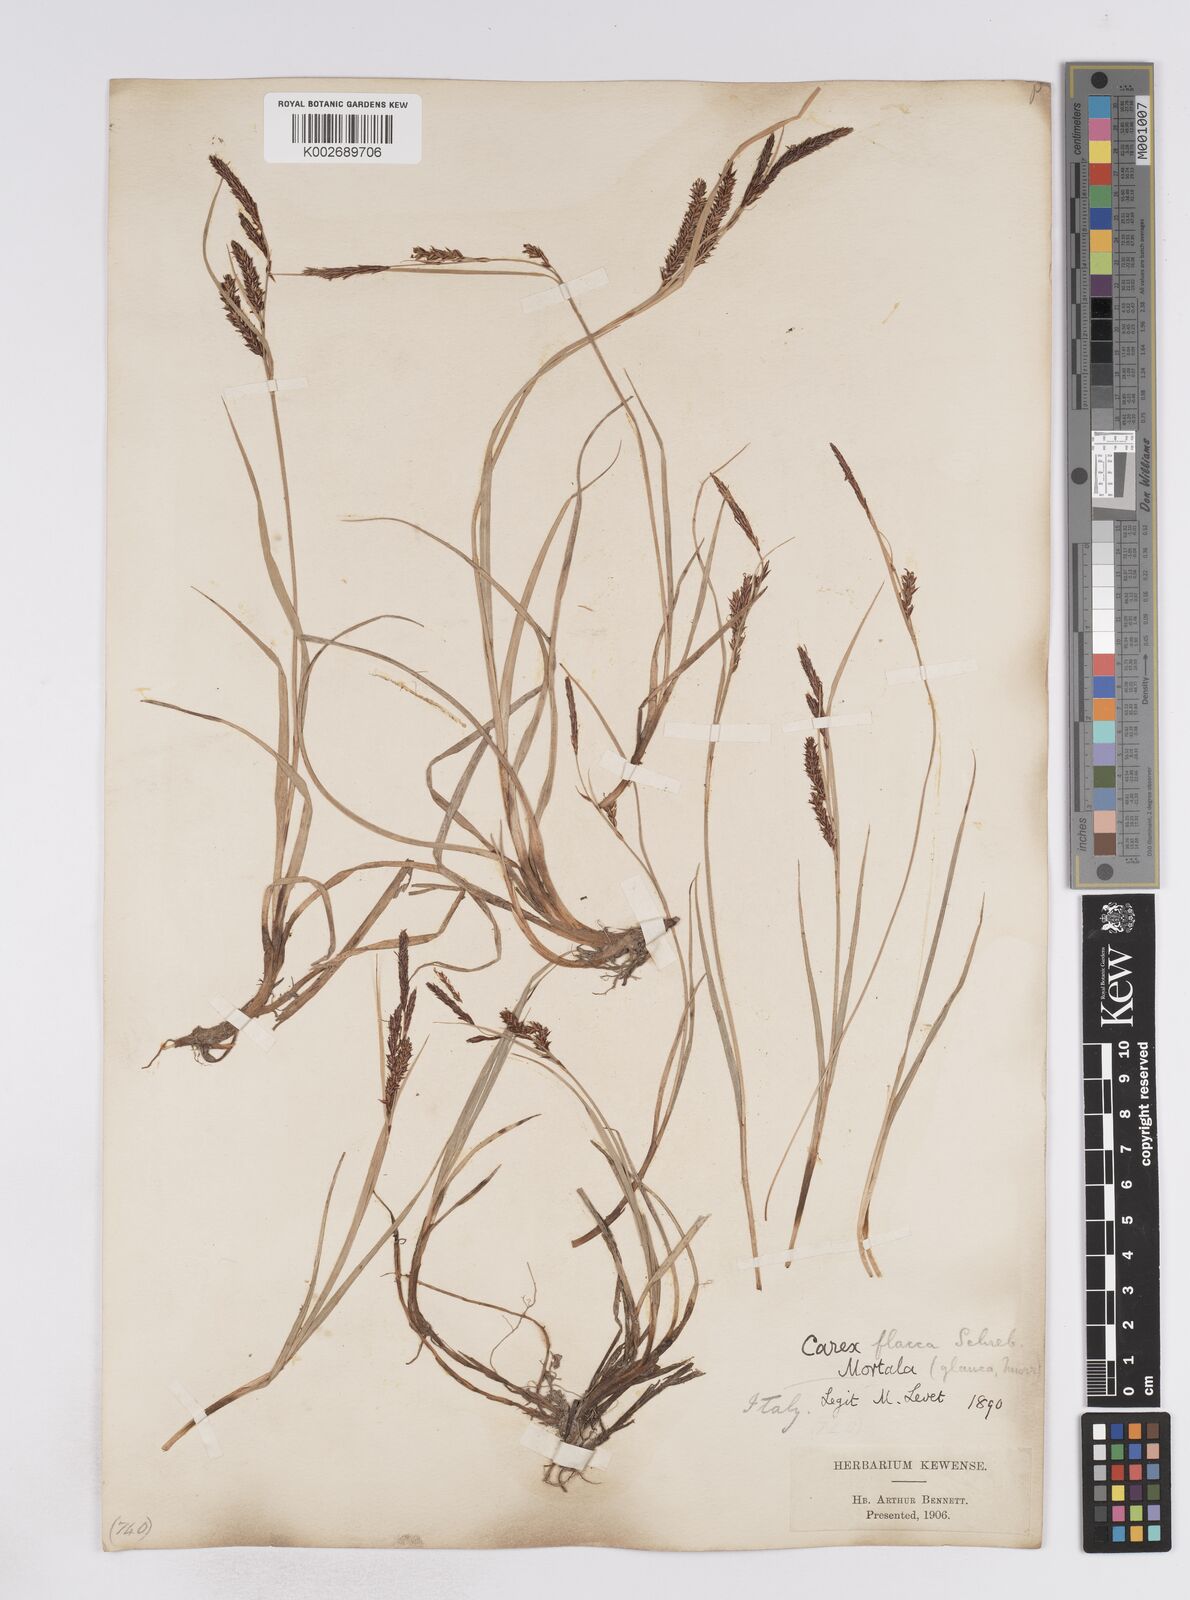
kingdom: Plantae
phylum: Tracheophyta
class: Liliopsida
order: Poales
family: Cyperaceae
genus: Carex
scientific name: Carex flacca
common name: Glaucous sedge
